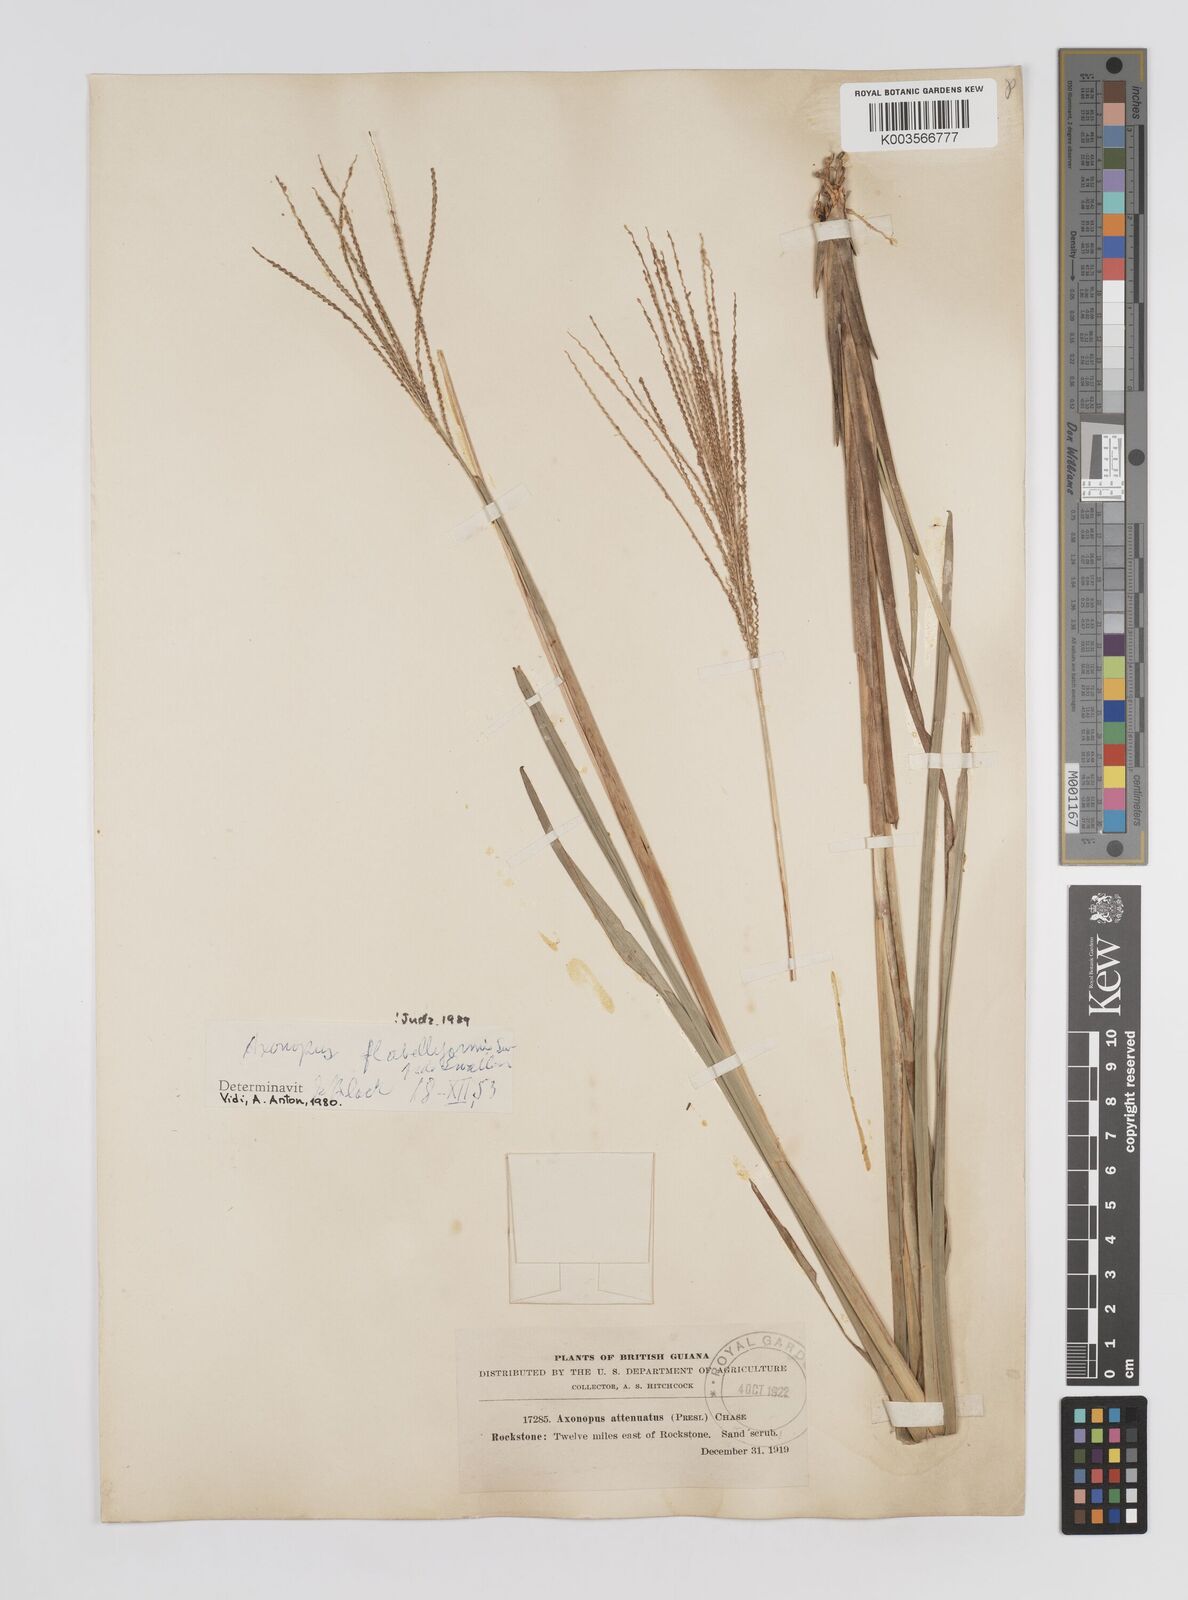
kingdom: Plantae
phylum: Tracheophyta
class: Liliopsida
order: Poales
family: Poaceae
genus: Axonopus
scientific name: Axonopus flabelliformis
